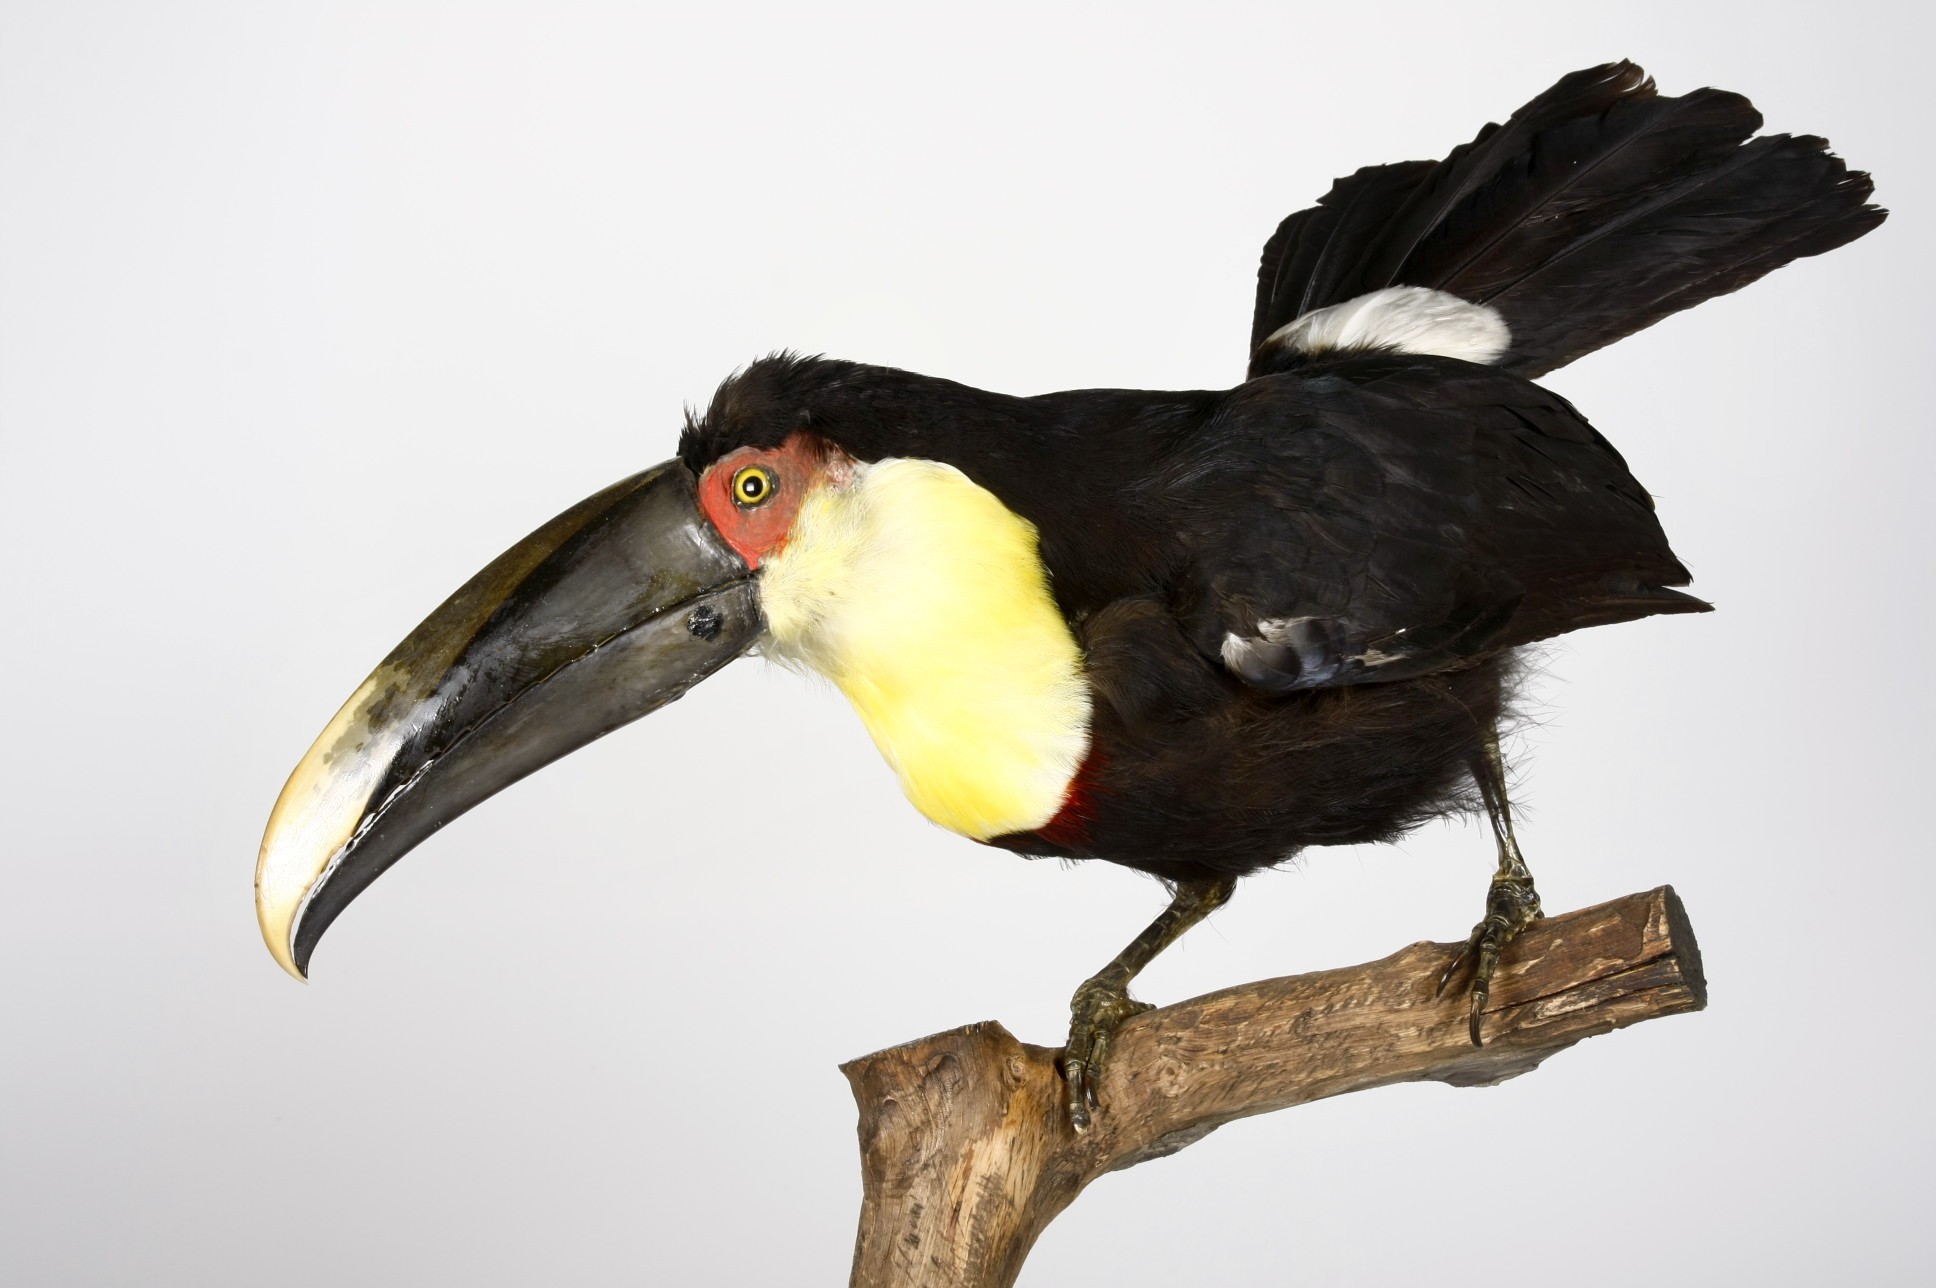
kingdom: Animalia
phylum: Chordata
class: Aves
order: Piciformes
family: Ramphastidae
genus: Ramphastos
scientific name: Ramphastos ambiguus
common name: Yellow-throated toucan
